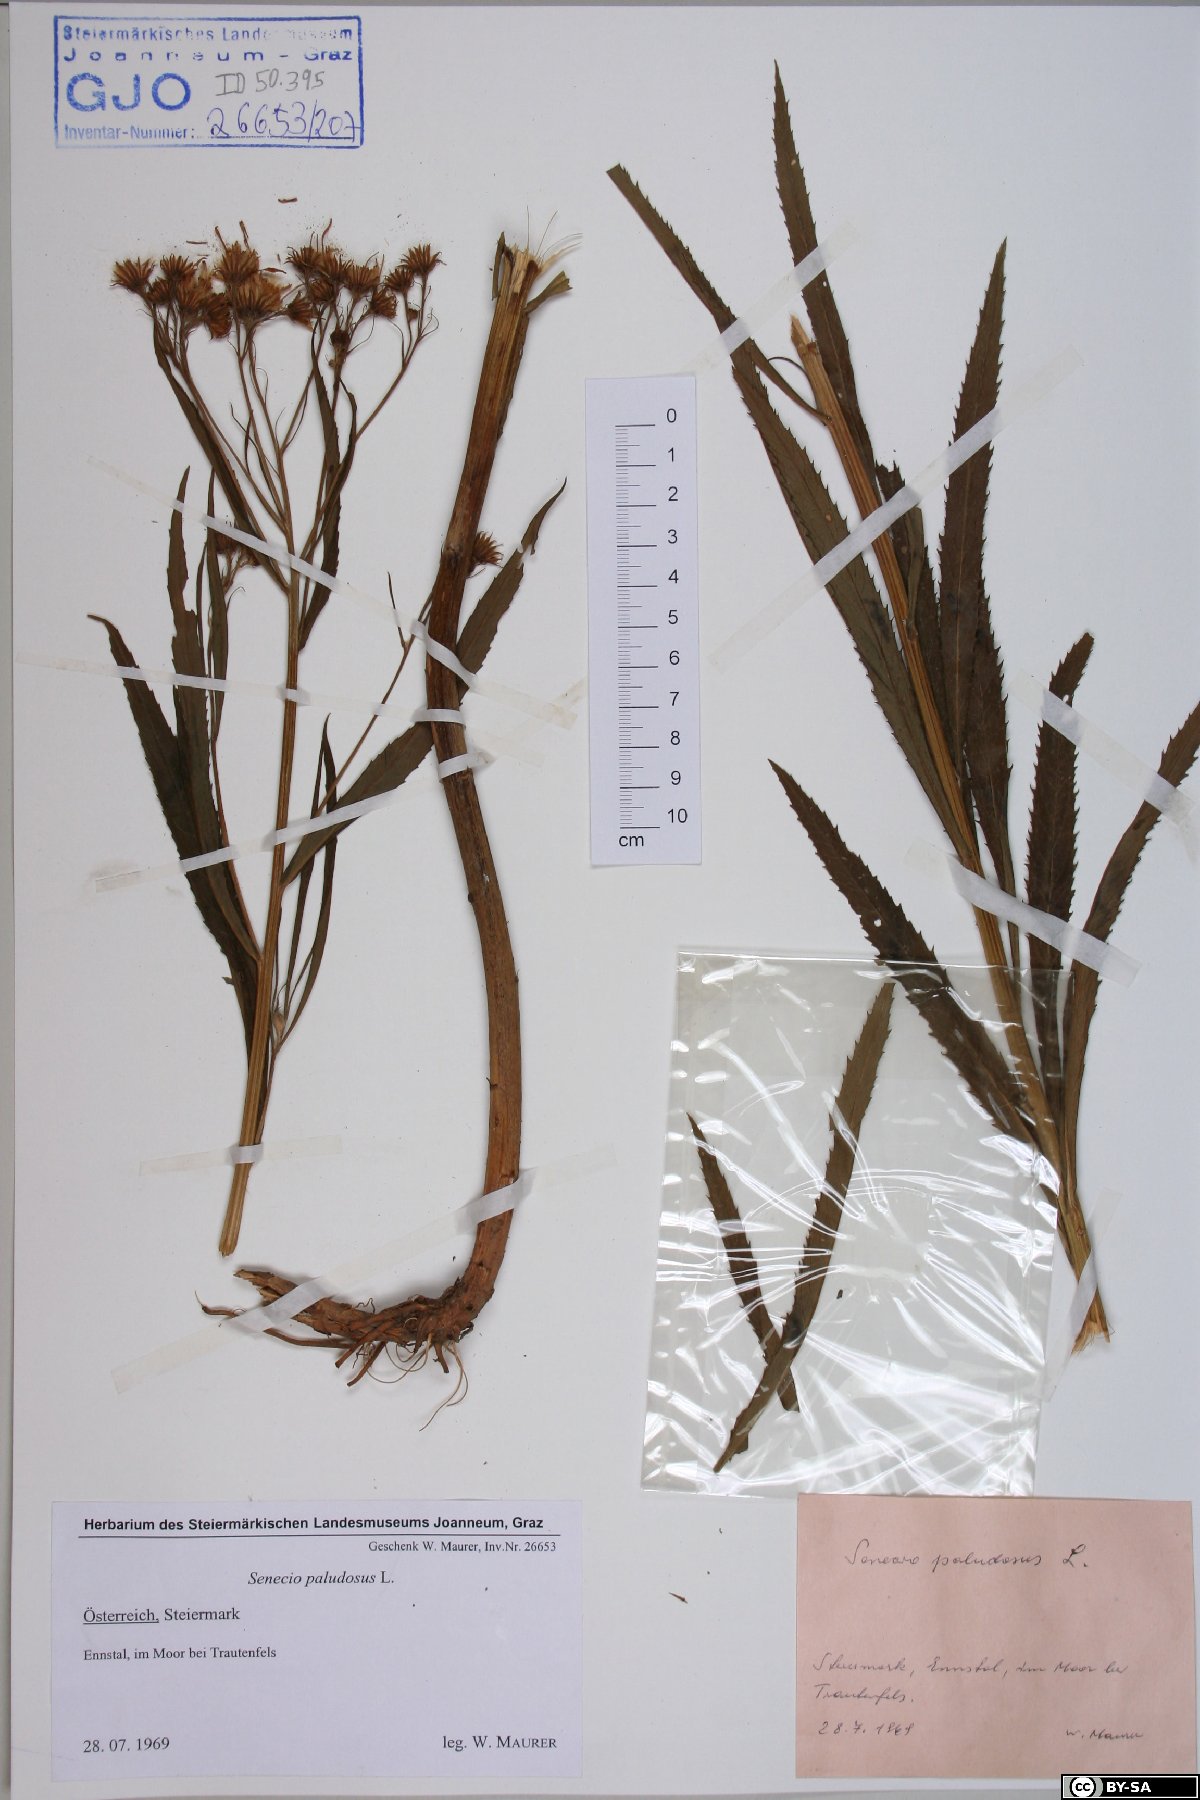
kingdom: Plantae
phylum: Tracheophyta
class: Magnoliopsida
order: Asterales
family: Asteraceae
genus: Jacobaea
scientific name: Jacobaea paludosa
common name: Fen ragwort
